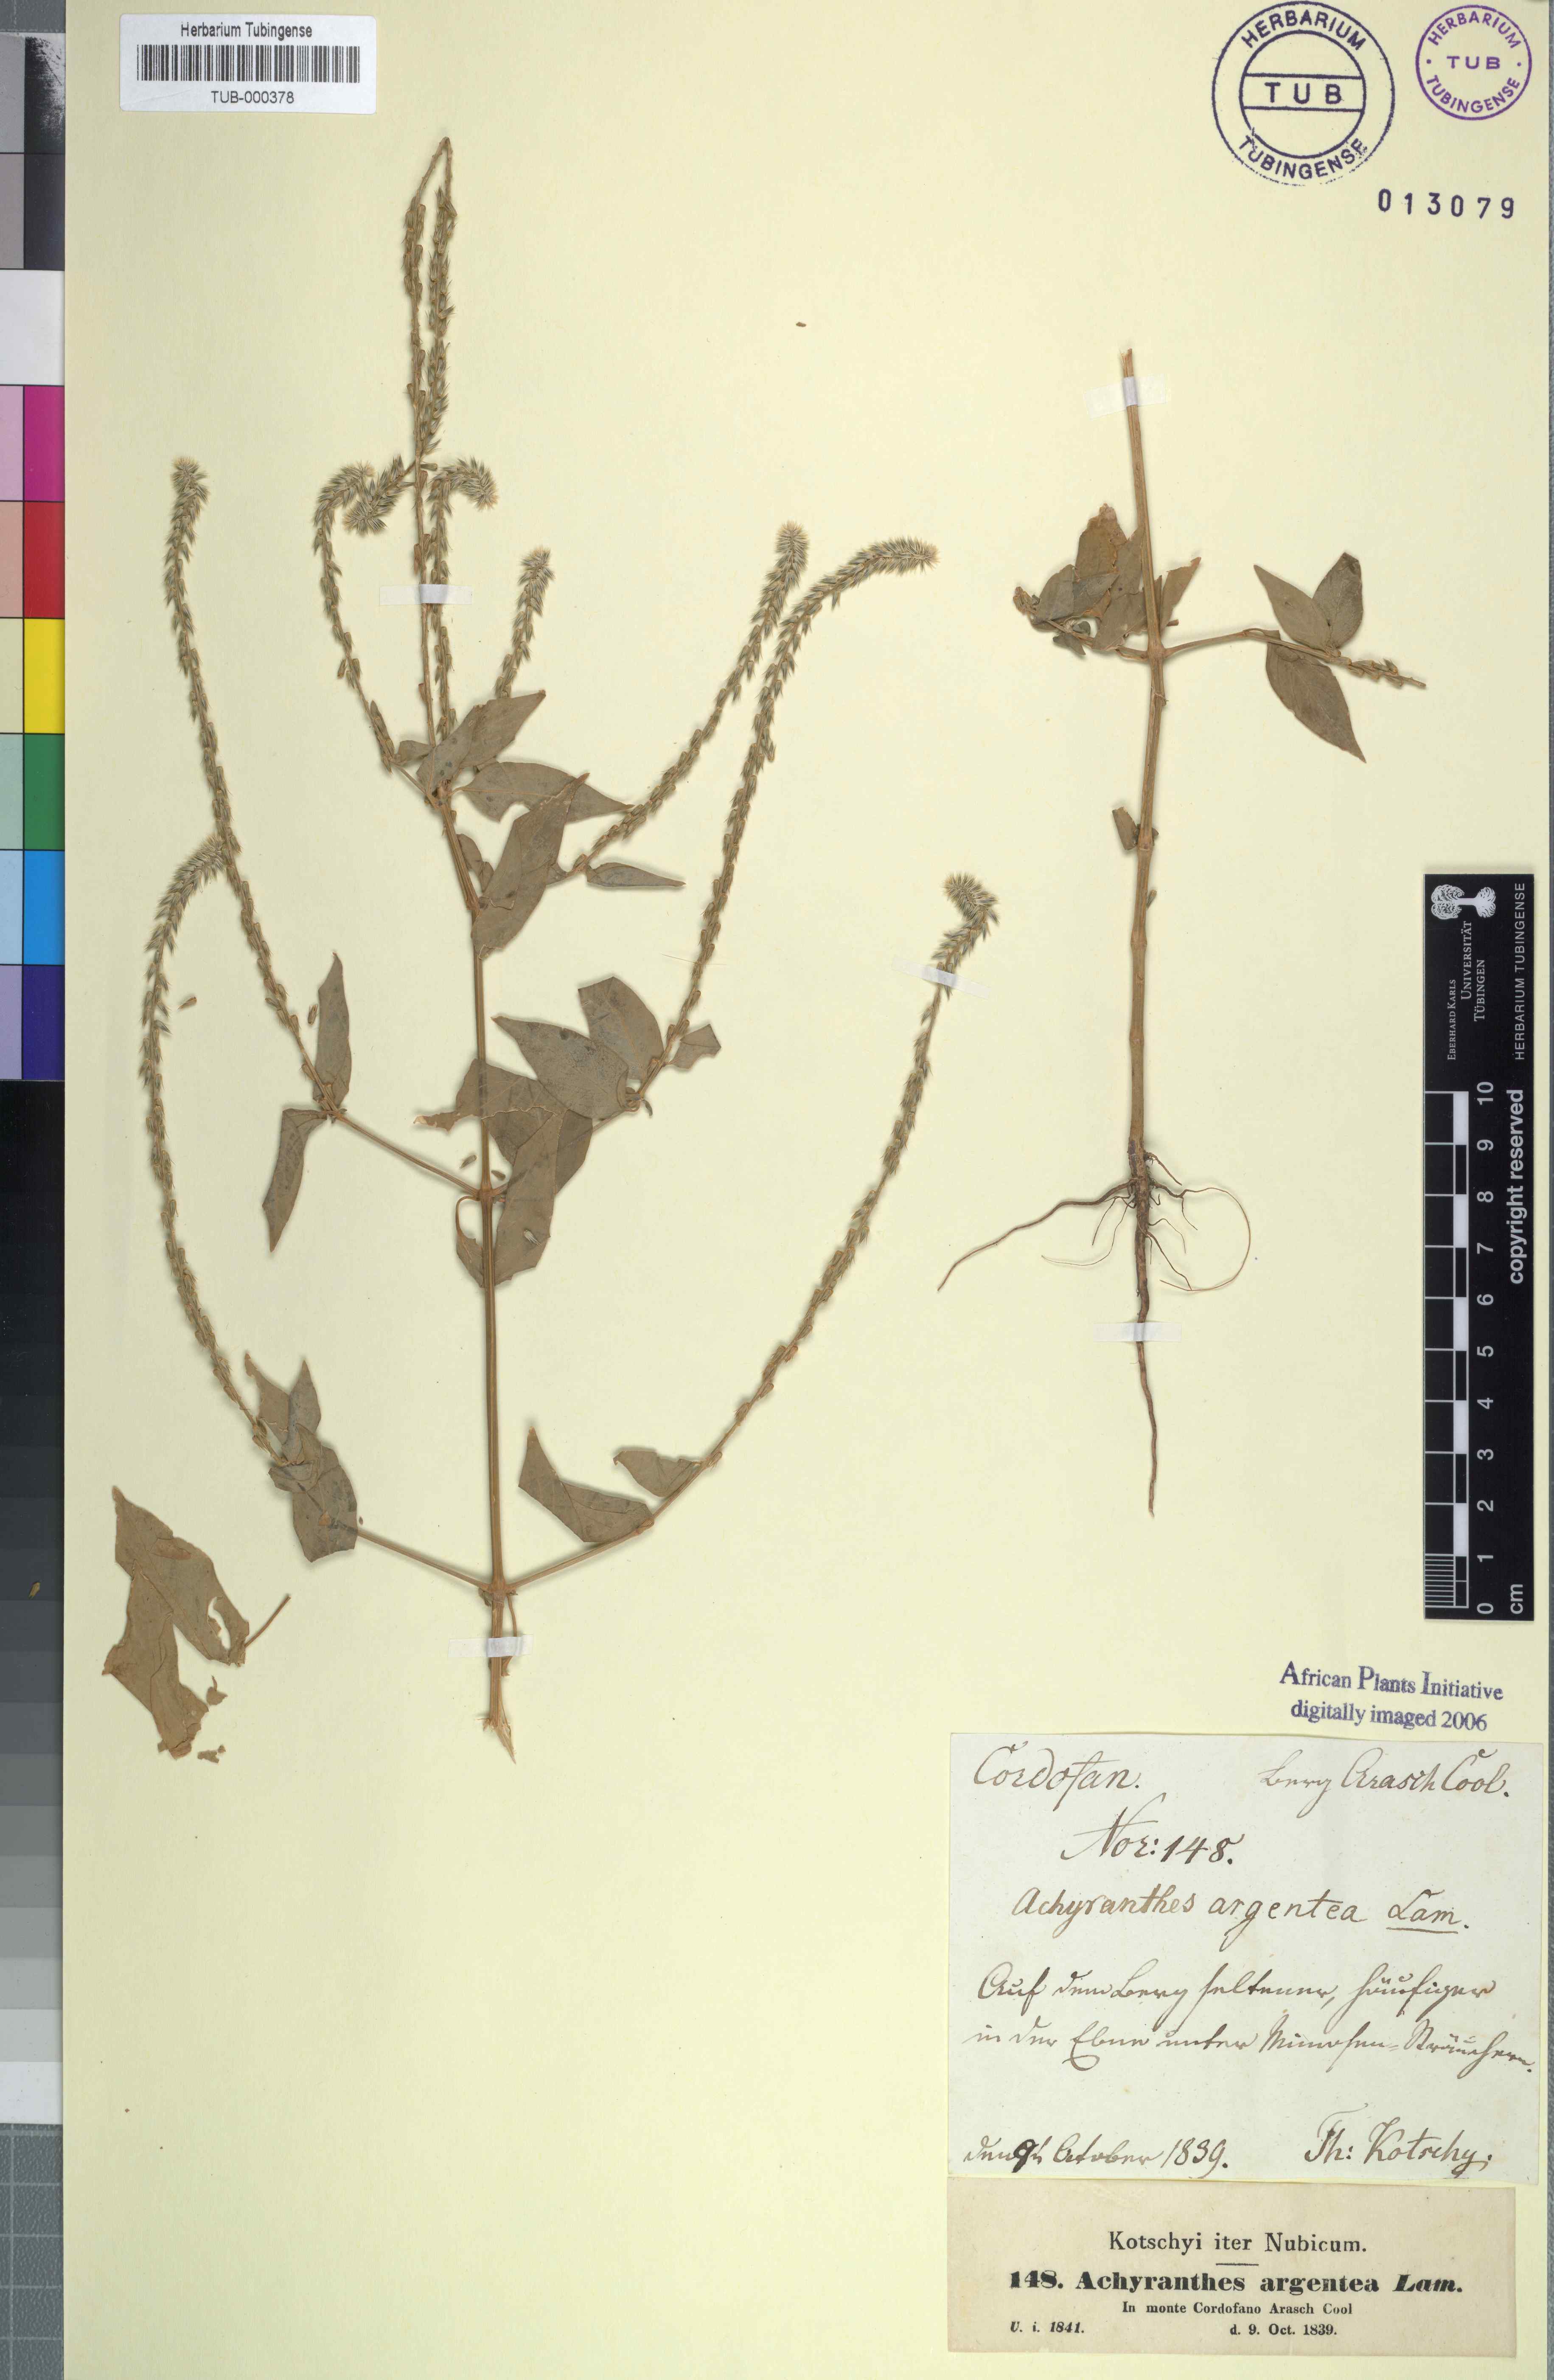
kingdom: Plantae
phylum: Tracheophyta
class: Magnoliopsida
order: Caryophyllales
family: Amaranthaceae
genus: Achyranthes
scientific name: Achyranthes aspera
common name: Devil's horsewhip
